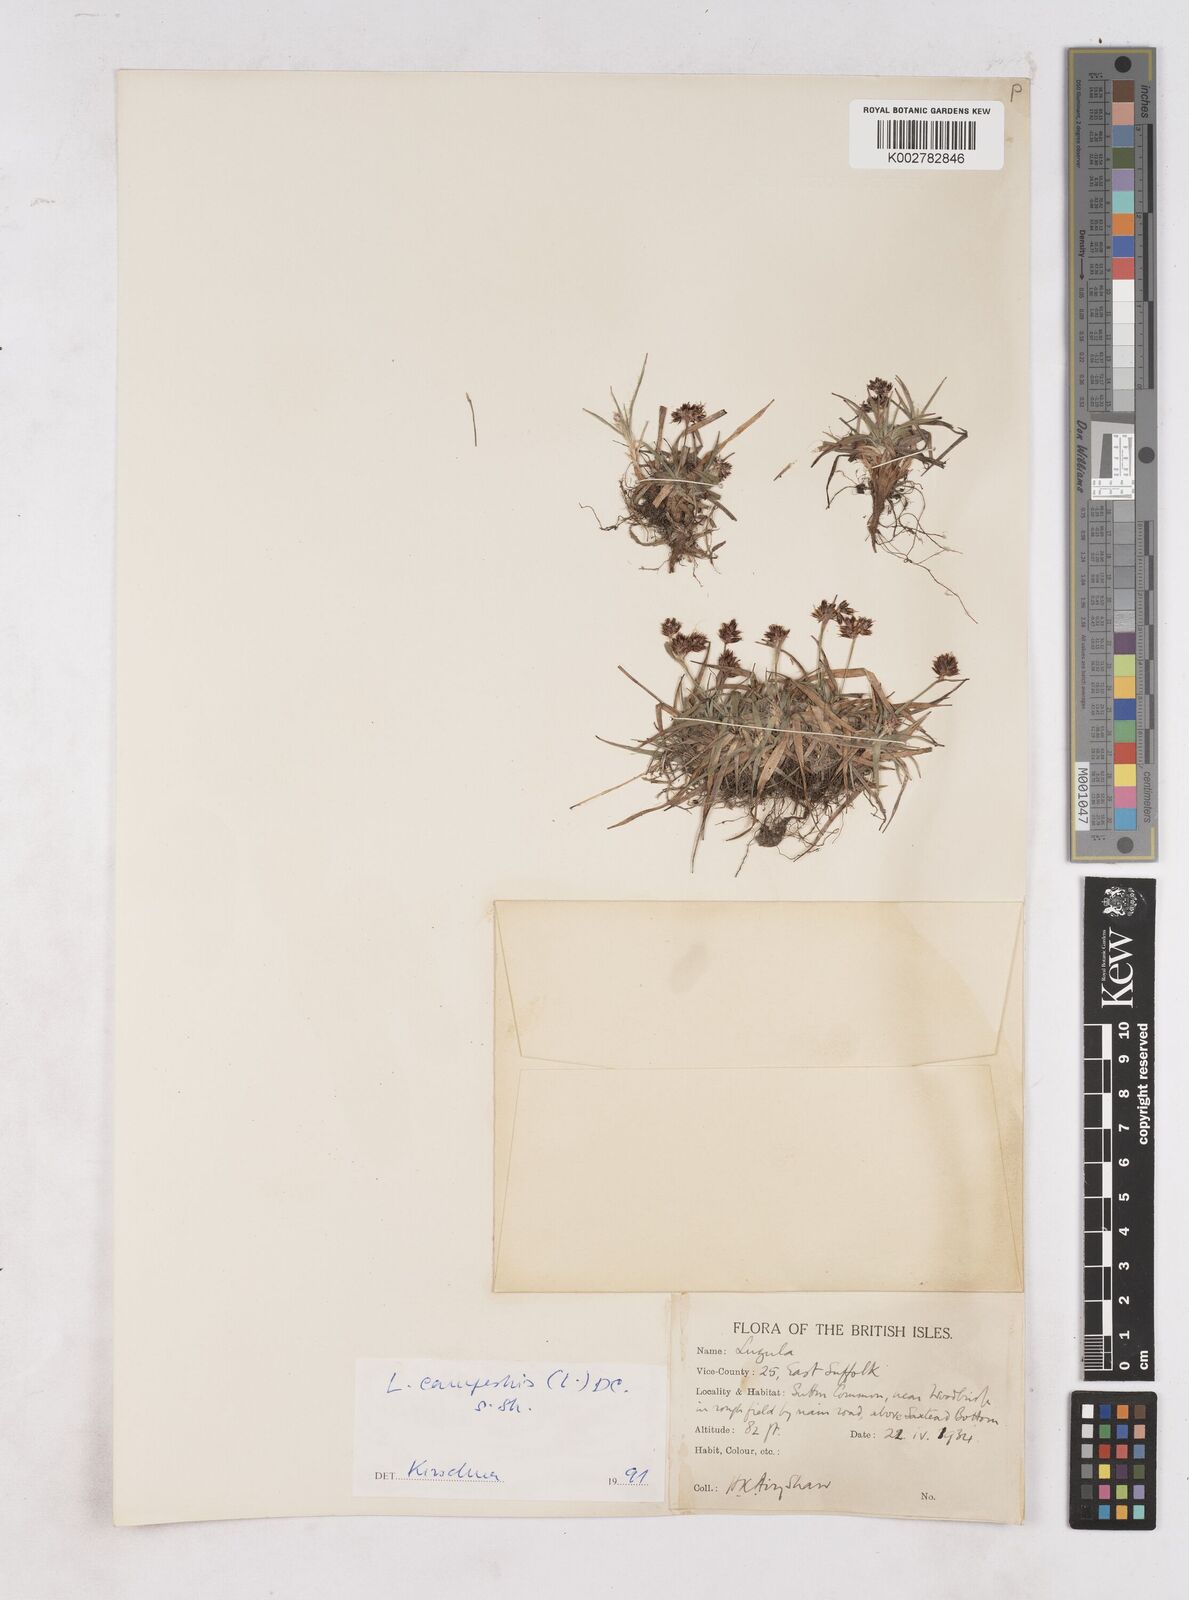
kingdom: Plantae
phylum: Tracheophyta
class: Liliopsida
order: Poales
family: Juncaceae
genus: Luzula
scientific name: Luzula campestris
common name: Field wood-rush
